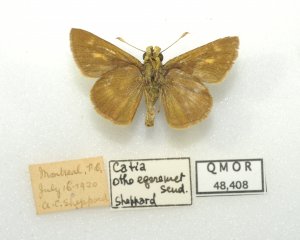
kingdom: Animalia
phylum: Arthropoda
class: Insecta
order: Lepidoptera
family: Hesperiidae
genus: Polites
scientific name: Polites egeremet
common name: Northern Broken-Dash
